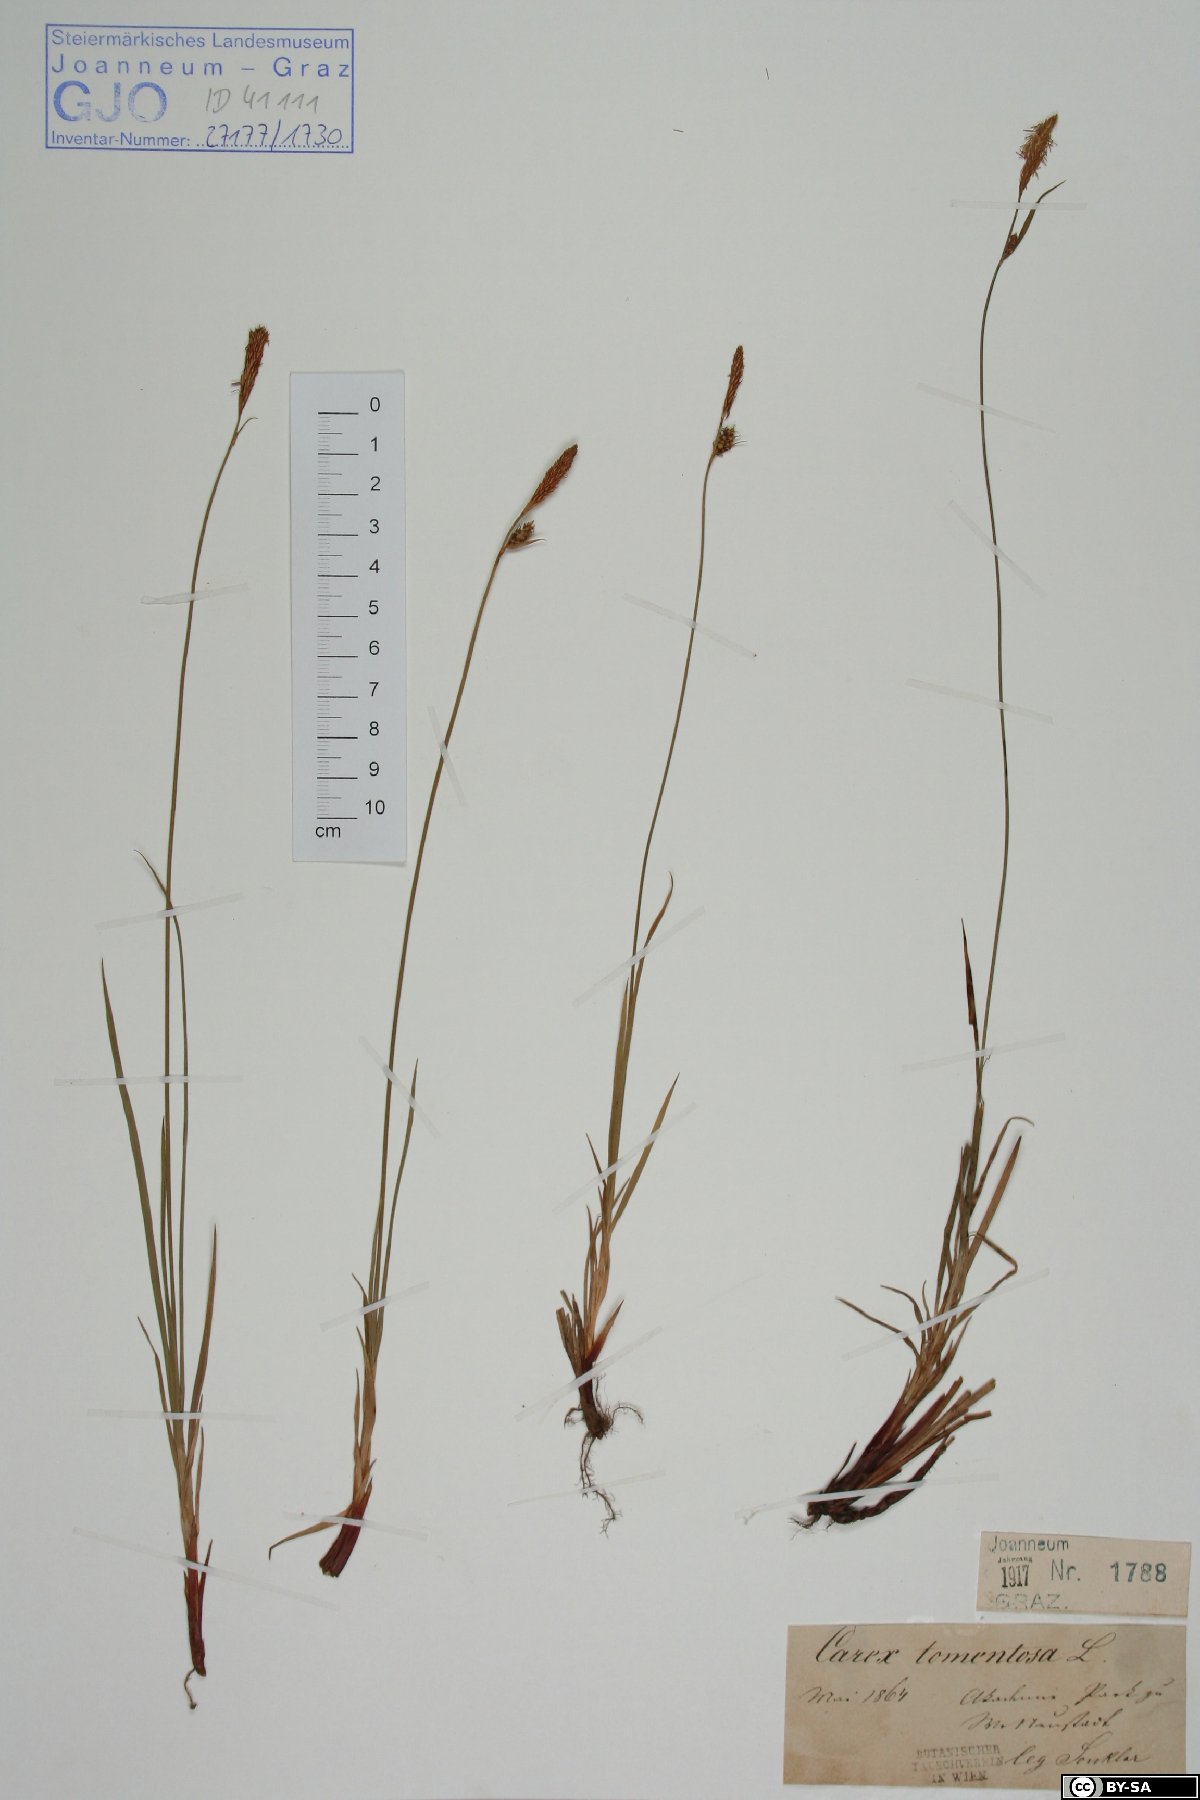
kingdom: Plantae
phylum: Tracheophyta
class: Liliopsida
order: Poales
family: Cyperaceae
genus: Carex
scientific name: Carex tomentosa
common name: Downy-fruited sedge
